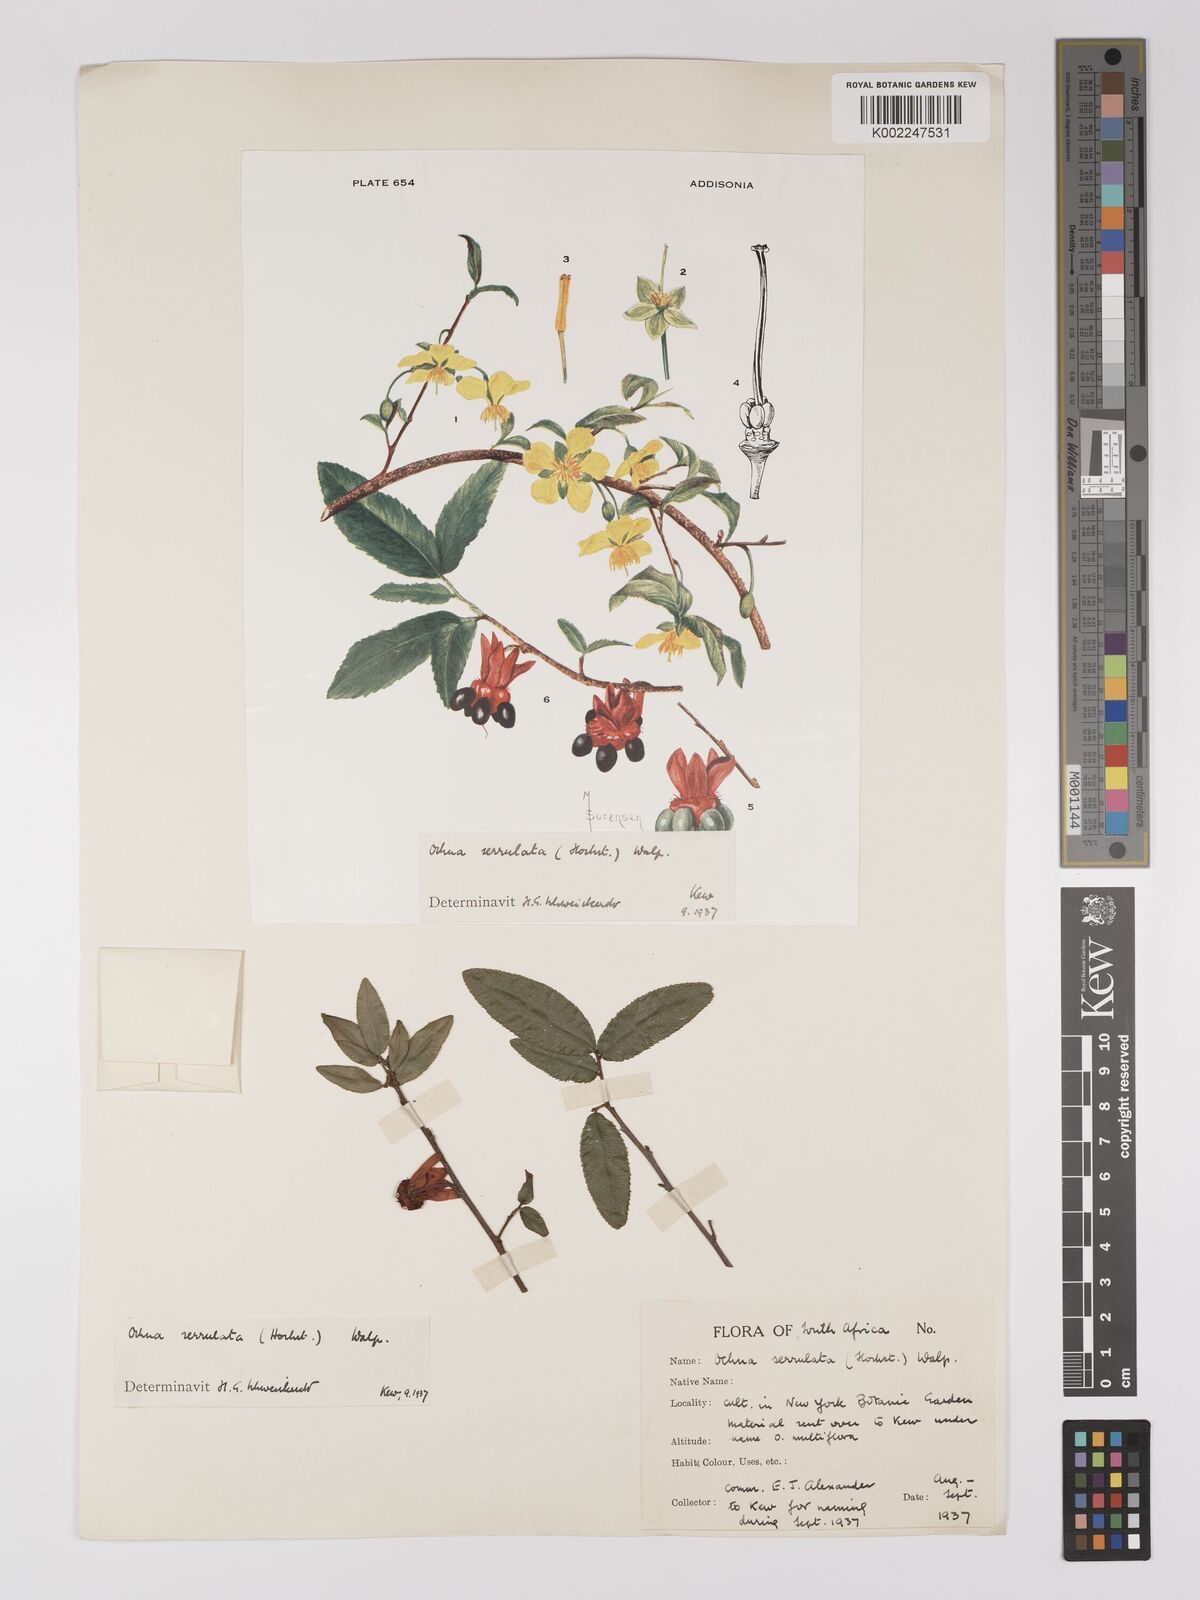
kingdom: Plantae
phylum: Tracheophyta
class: Magnoliopsida
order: Malpighiales
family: Ochnaceae
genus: Ochna
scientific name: Ochna atropurpurea
